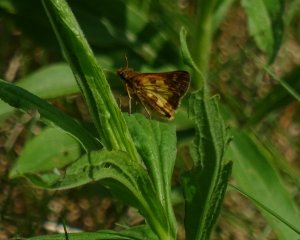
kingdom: Animalia
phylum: Arthropoda
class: Insecta
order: Lepidoptera
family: Hesperiidae
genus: Polites
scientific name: Polites coras
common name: Peck's Skipper
